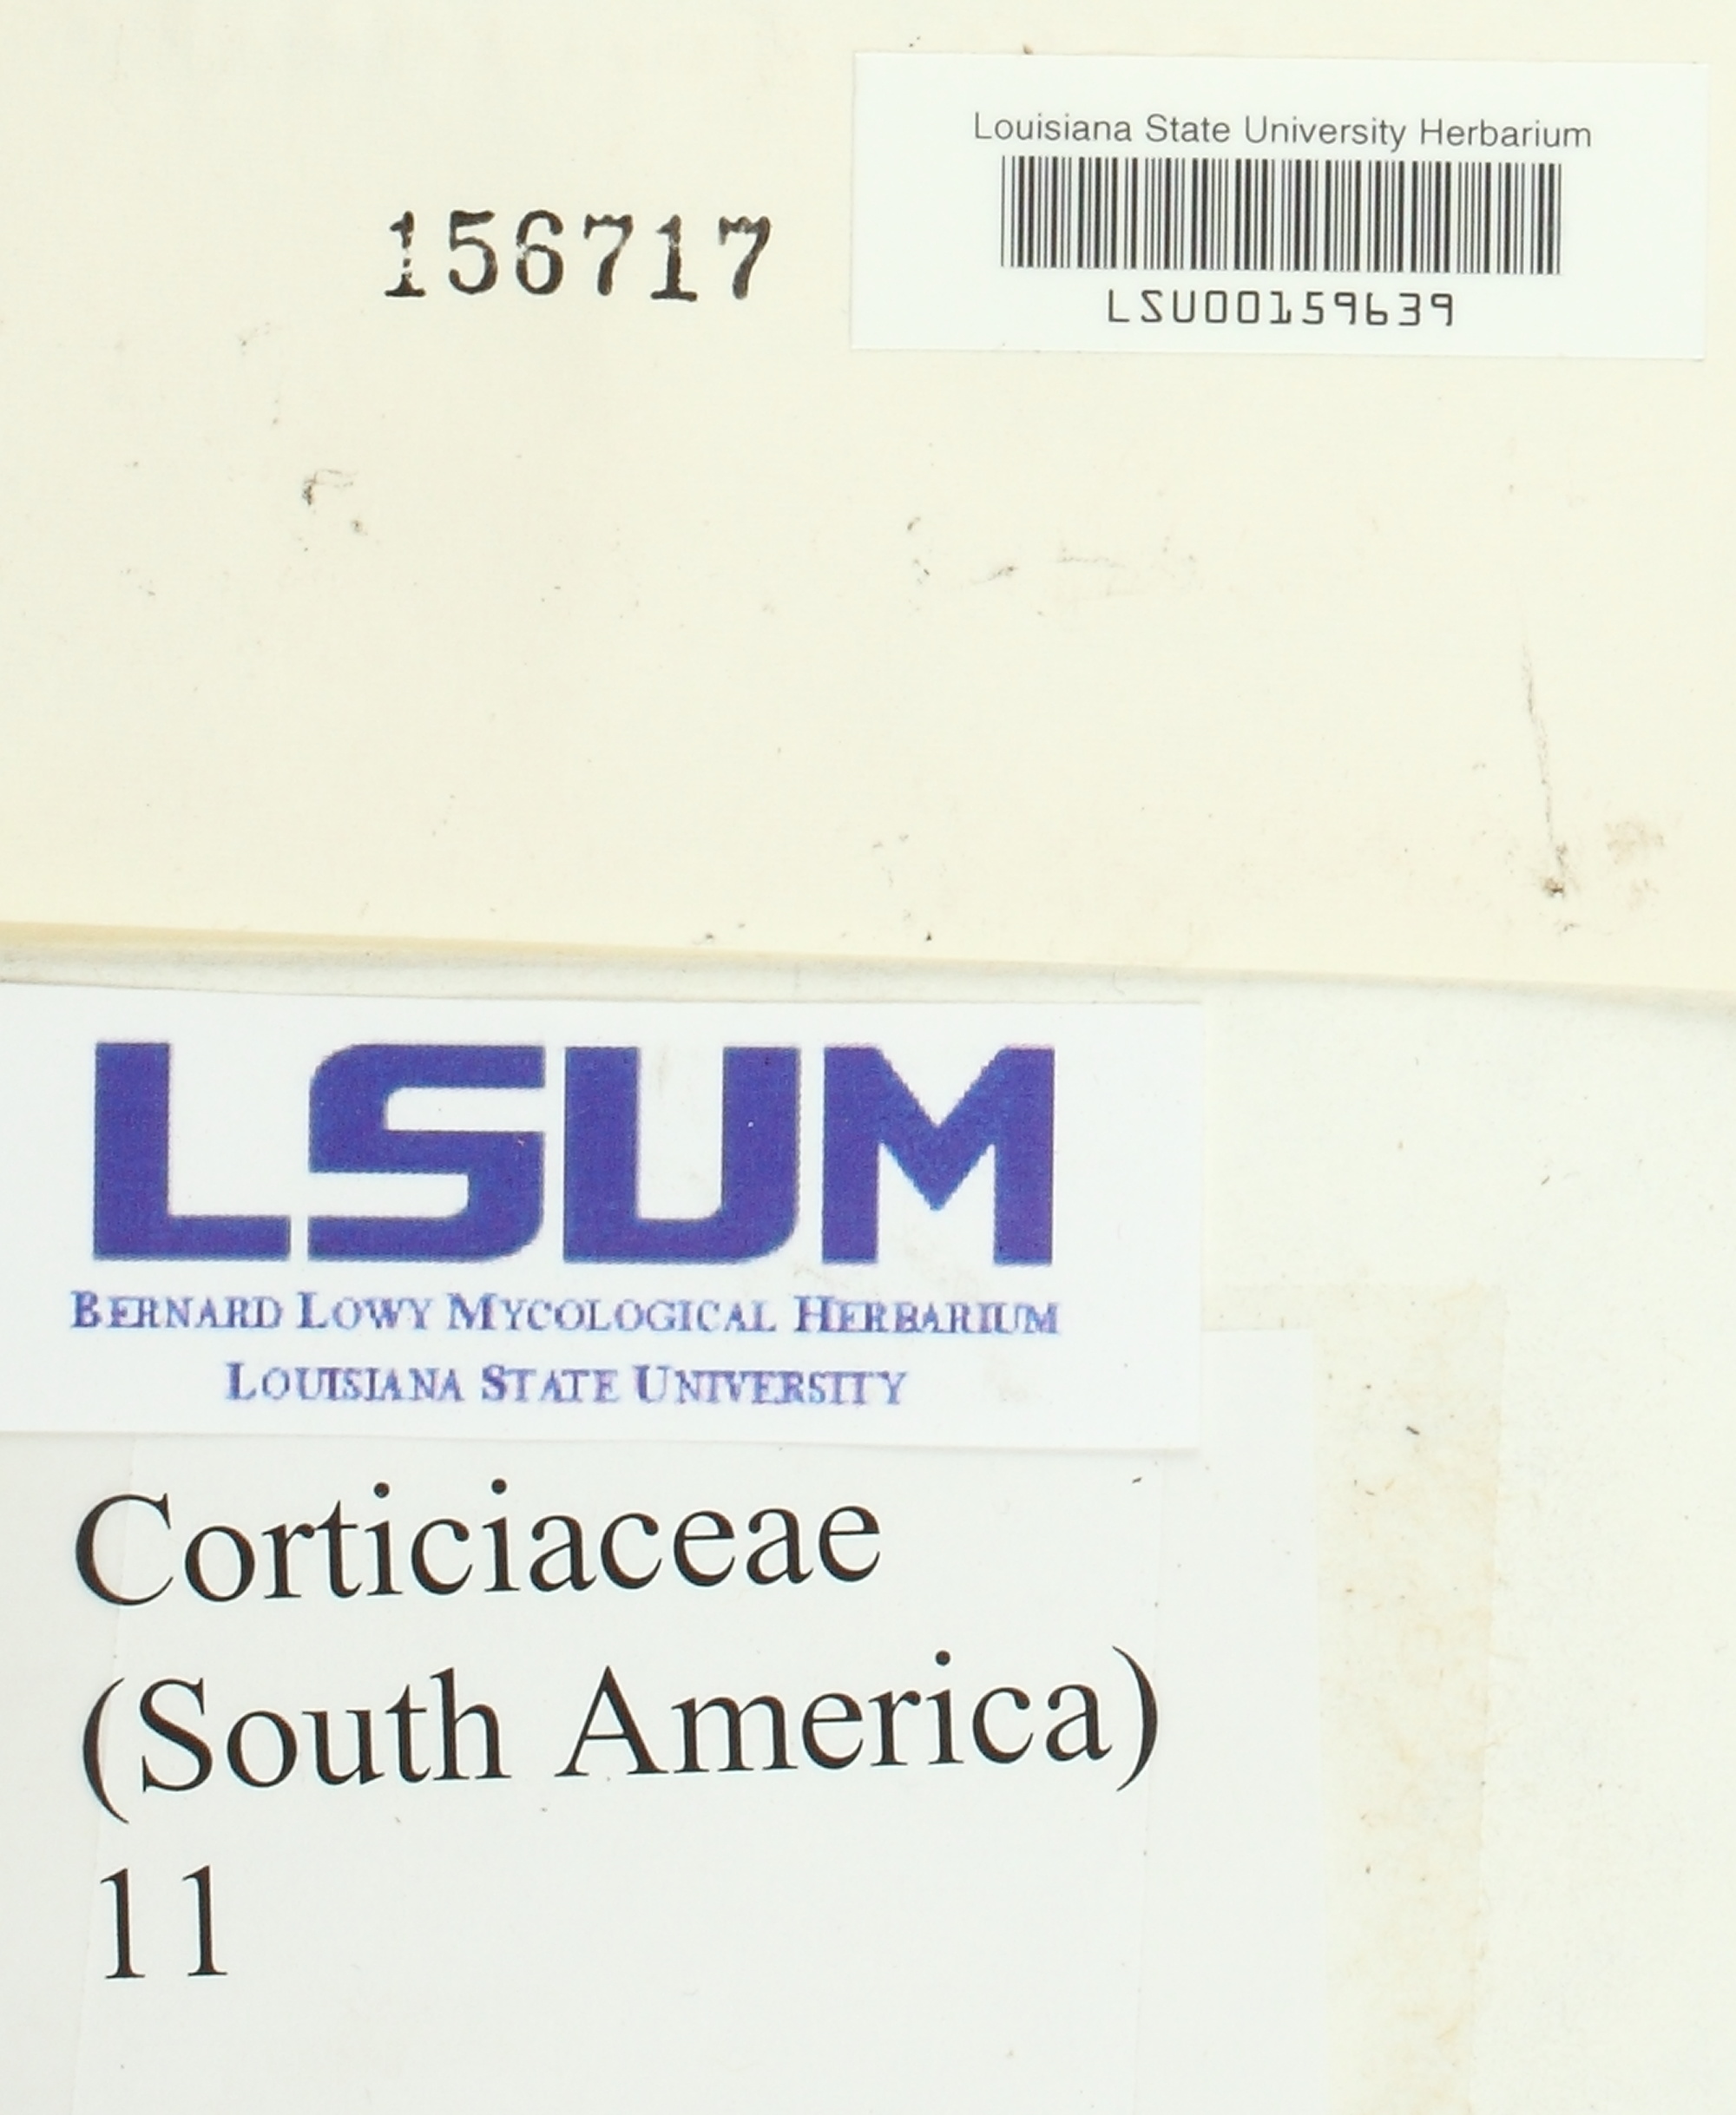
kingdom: Fungi
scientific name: Fungi
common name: Fungi
